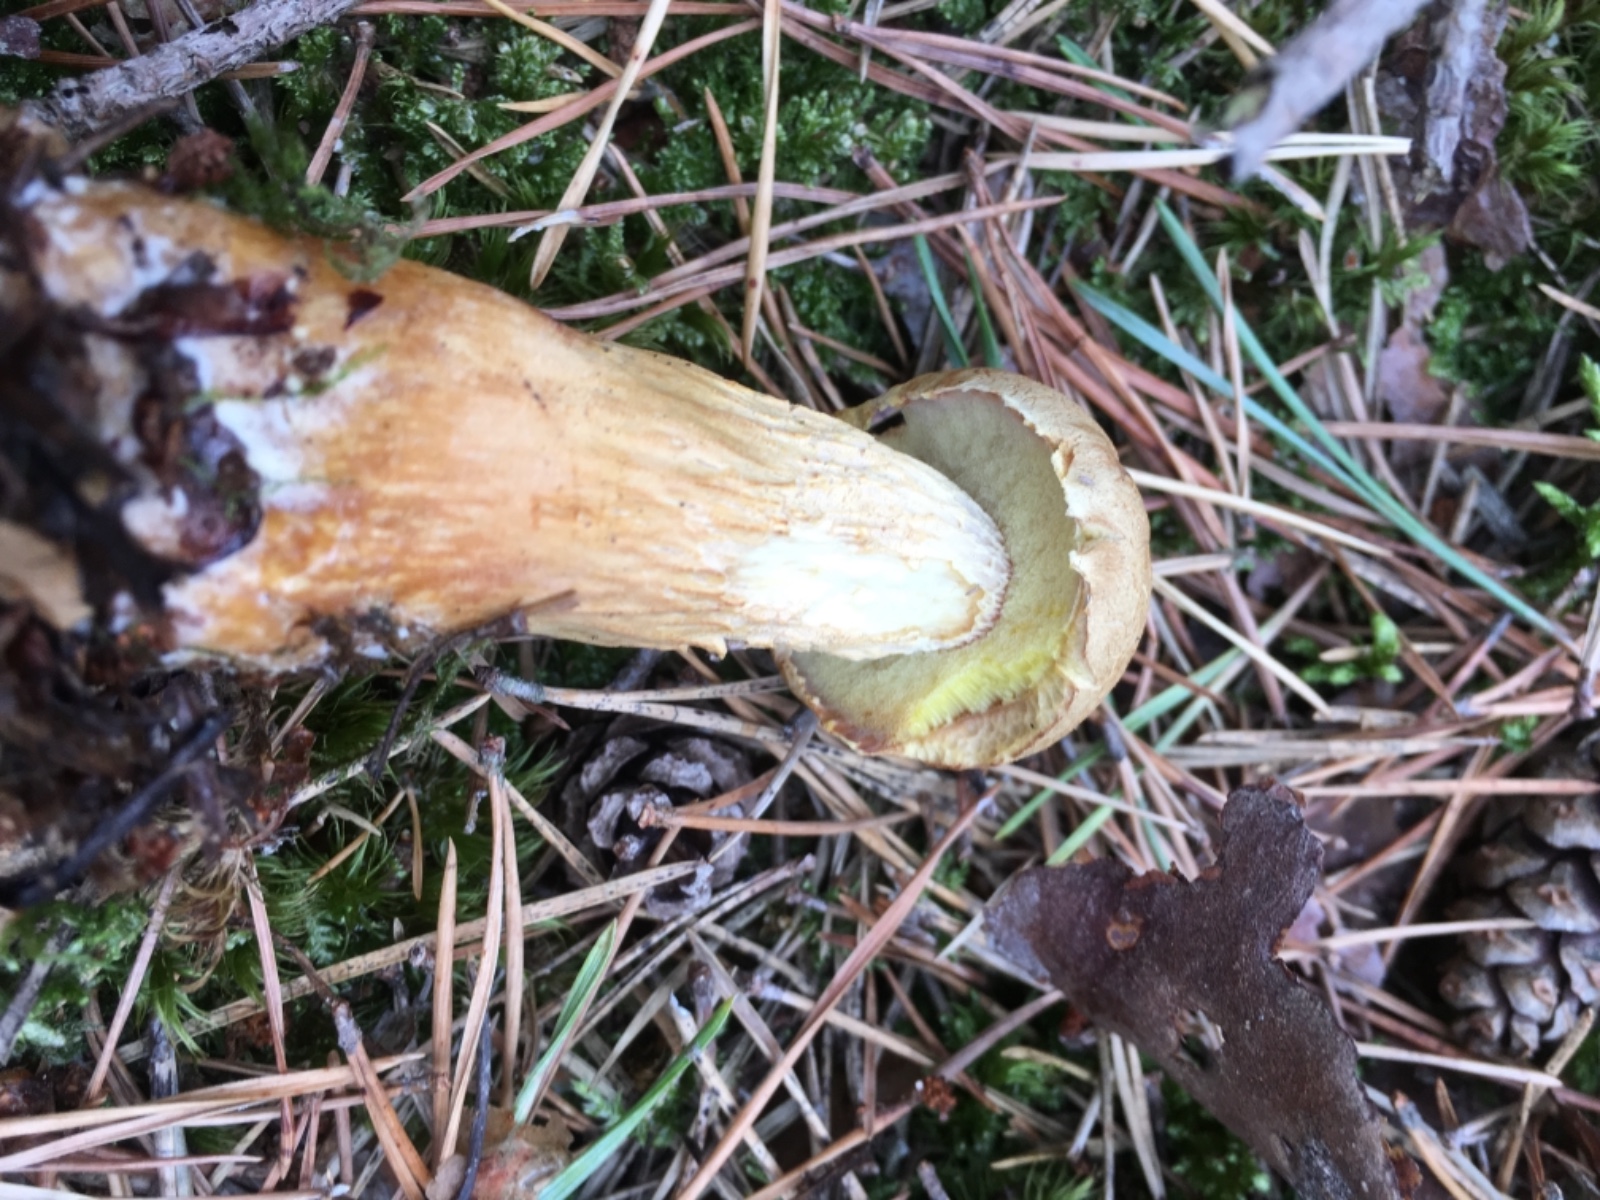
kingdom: Fungi
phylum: Basidiomycota
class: Agaricomycetes
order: Boletales
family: Boletaceae
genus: Aureoboletus
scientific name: Aureoboletus projectellus
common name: ribbestokket rørhat
